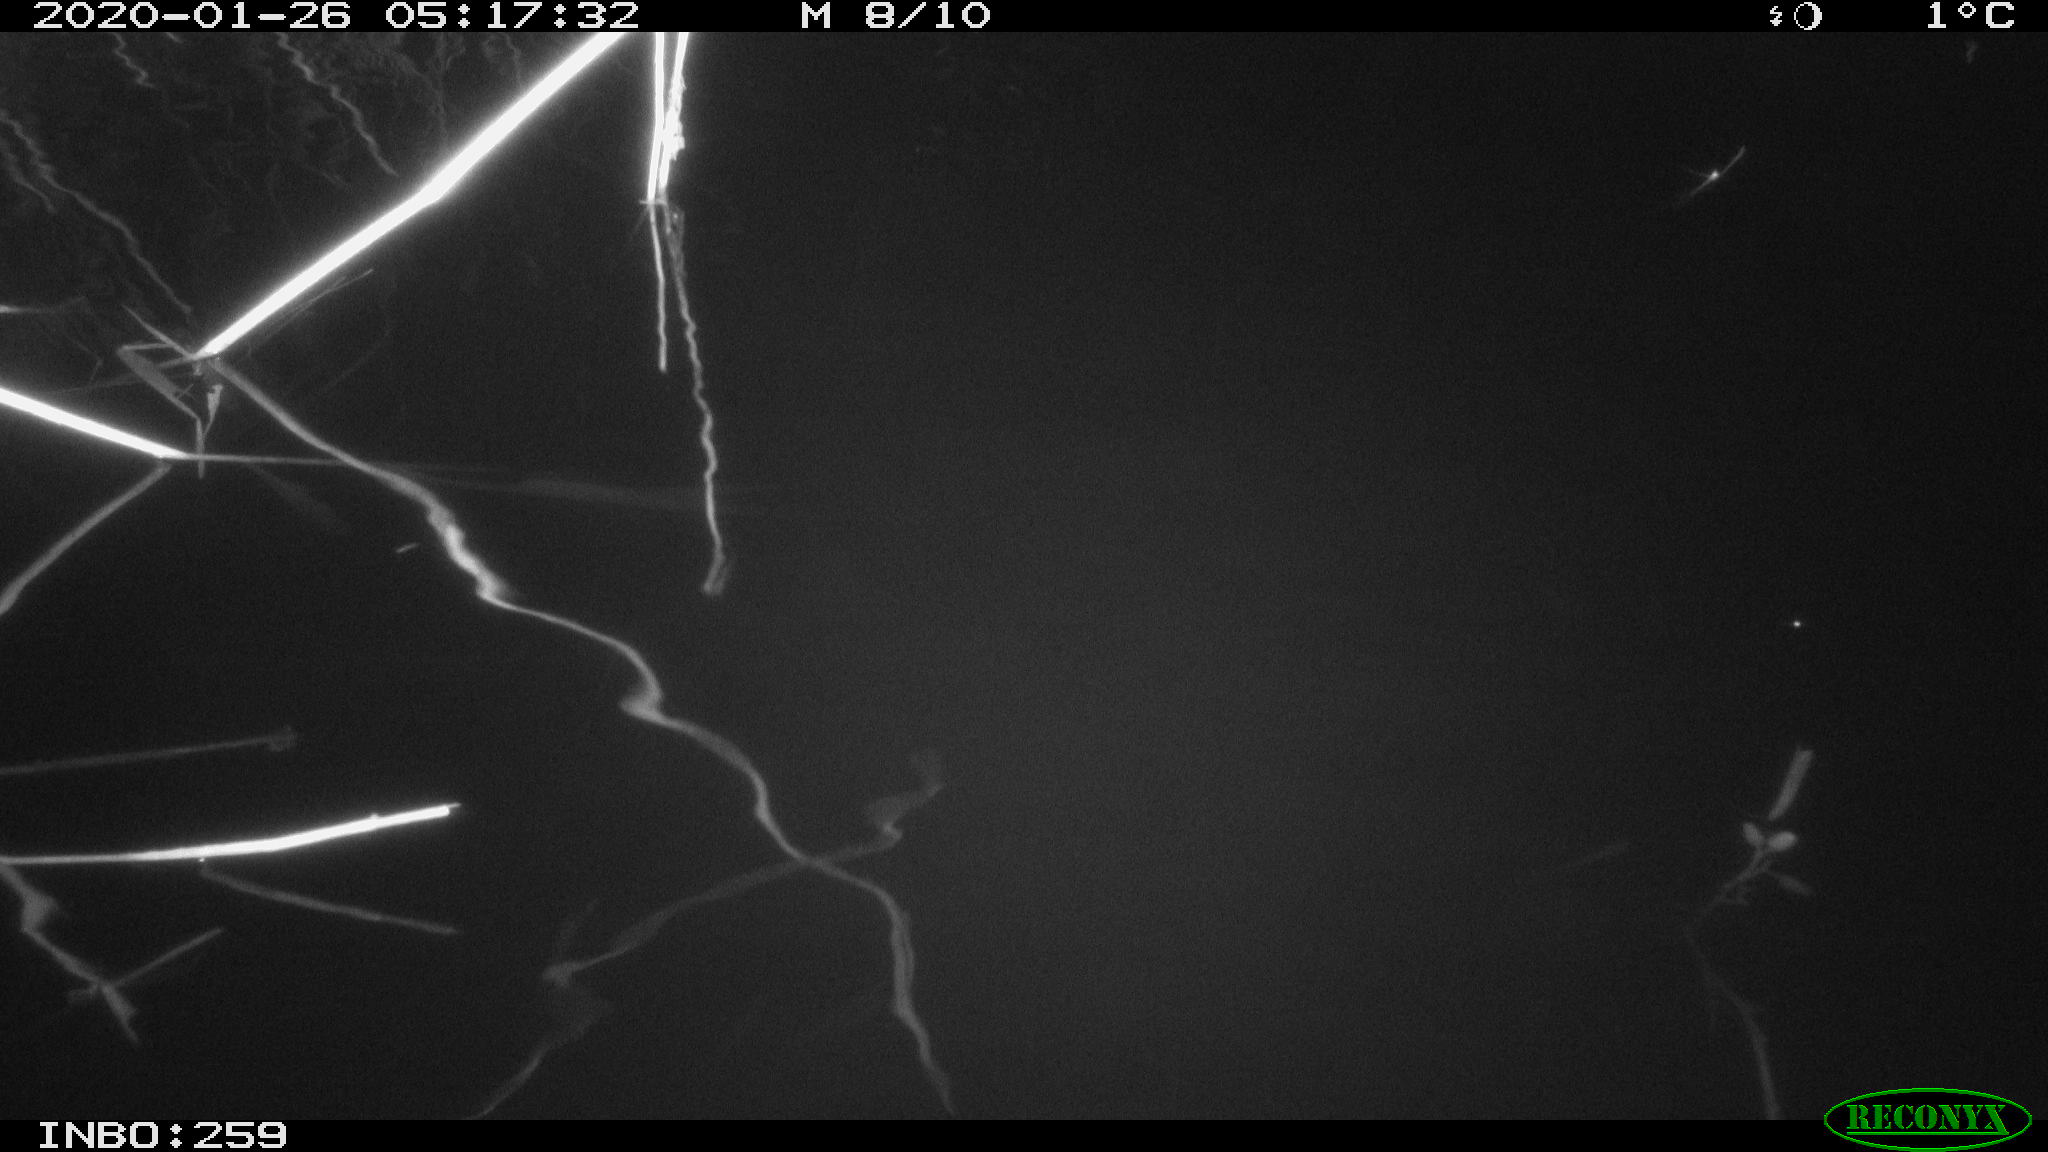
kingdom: Animalia
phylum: Chordata
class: Mammalia
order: Rodentia
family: Cricetidae
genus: Ondatra
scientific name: Ondatra zibethicus
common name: Muskrat
